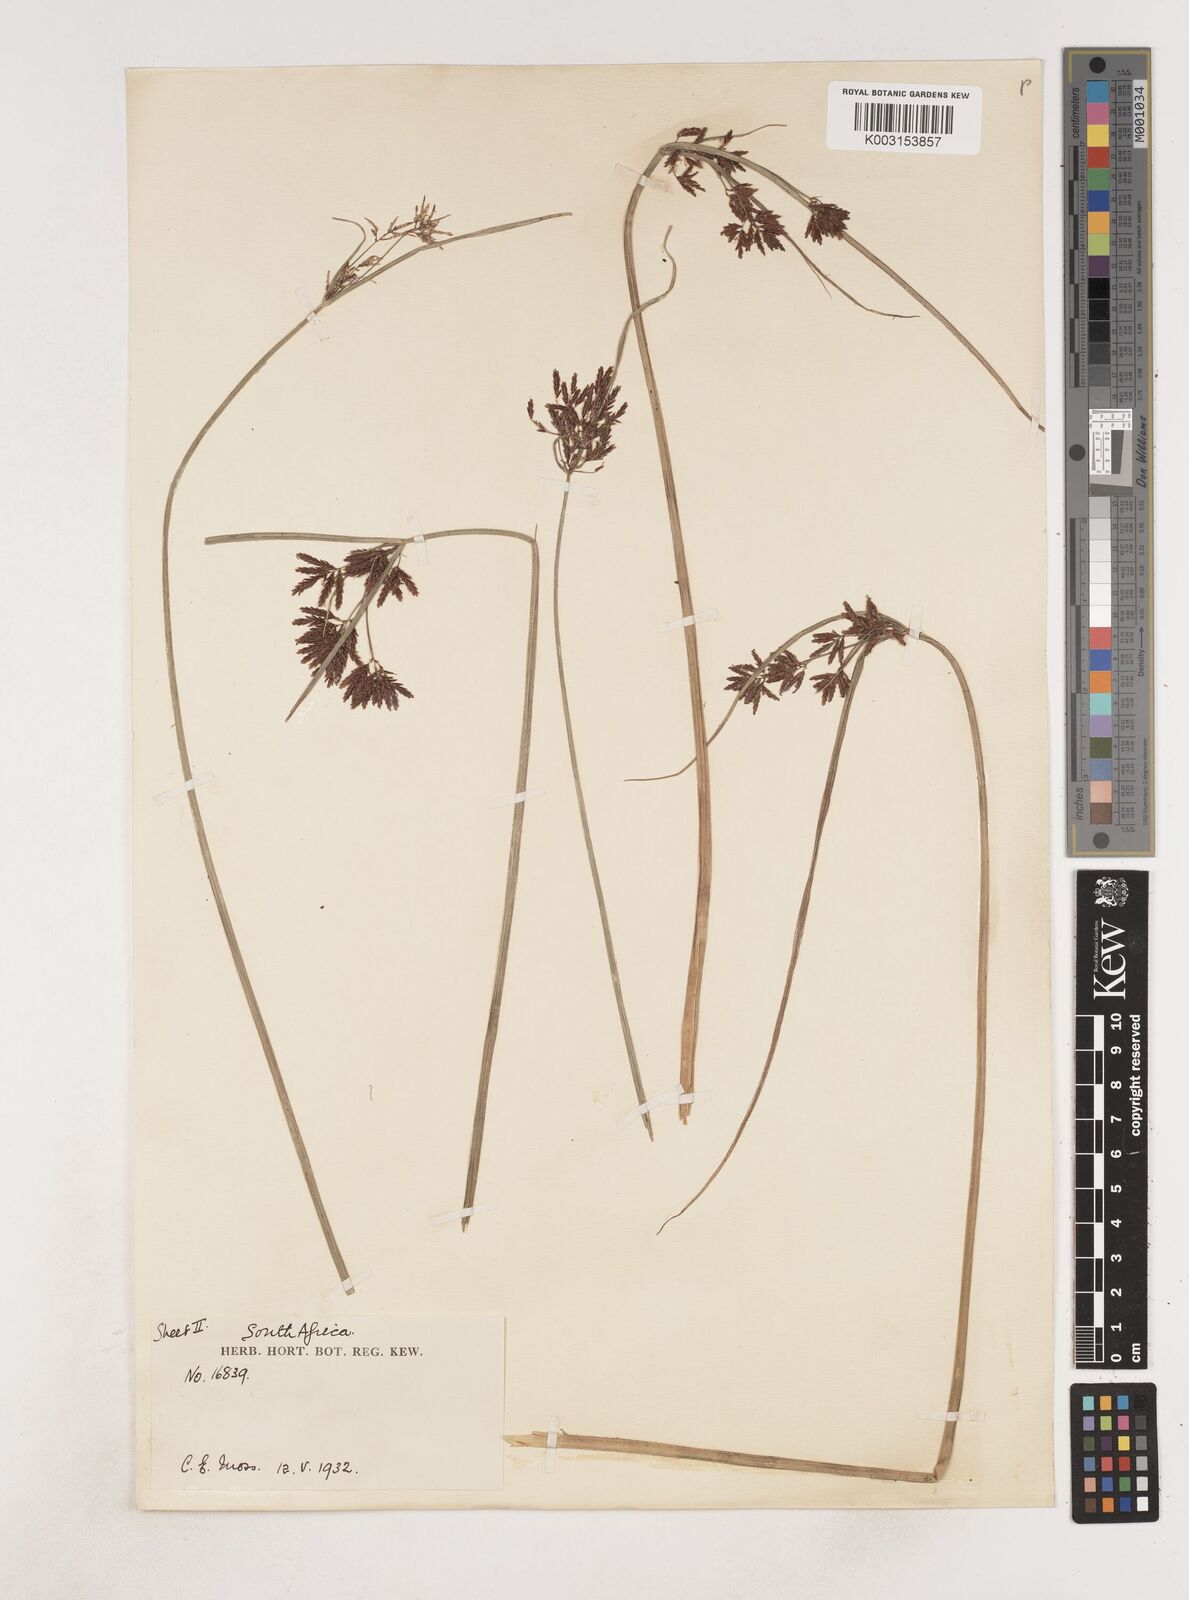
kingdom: Plantae
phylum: Tracheophyta
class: Liliopsida
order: Poales
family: Cyperaceae
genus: Cyperus
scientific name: Cyperus
